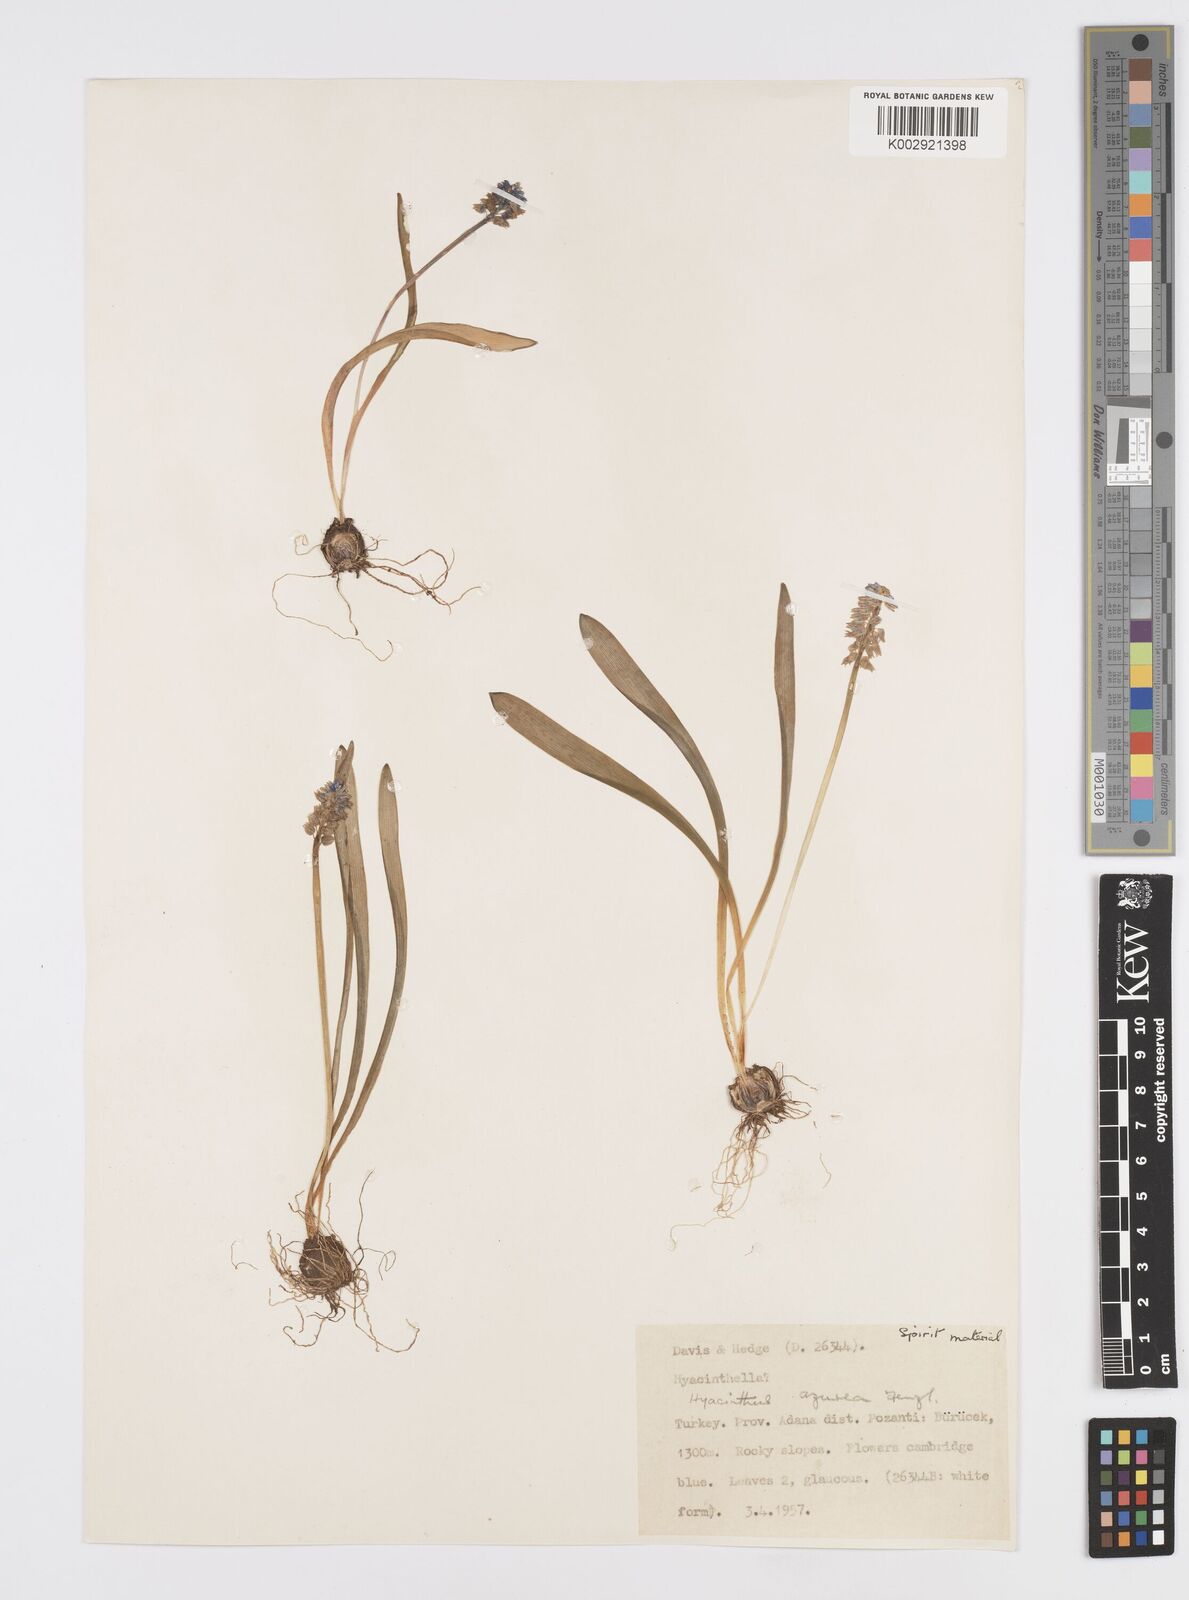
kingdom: Plantae
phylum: Tracheophyta
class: Liliopsida
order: Asparagales
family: Asparagaceae
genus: Muscari
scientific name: Muscari
